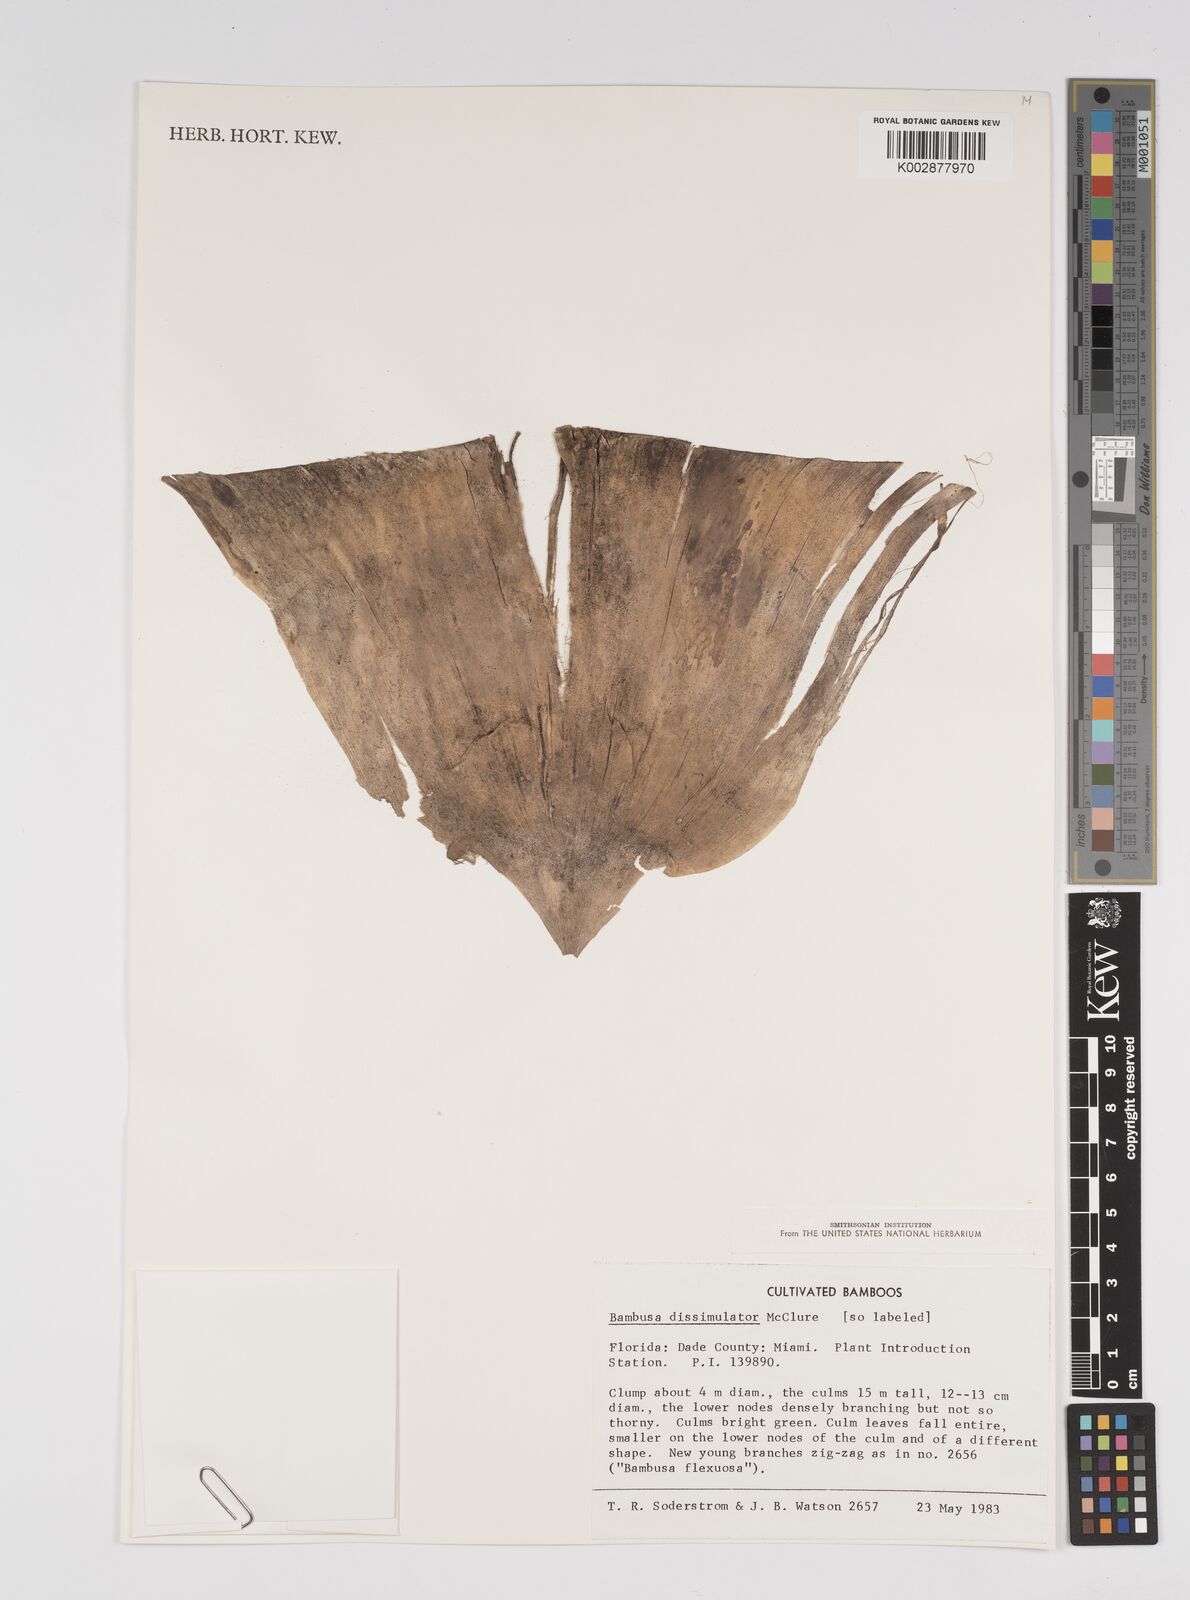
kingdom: Plantae
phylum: Tracheophyta
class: Liliopsida
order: Poales
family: Poaceae
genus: Bambusa
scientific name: Bambusa dissimulator
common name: Muddy bamboo
